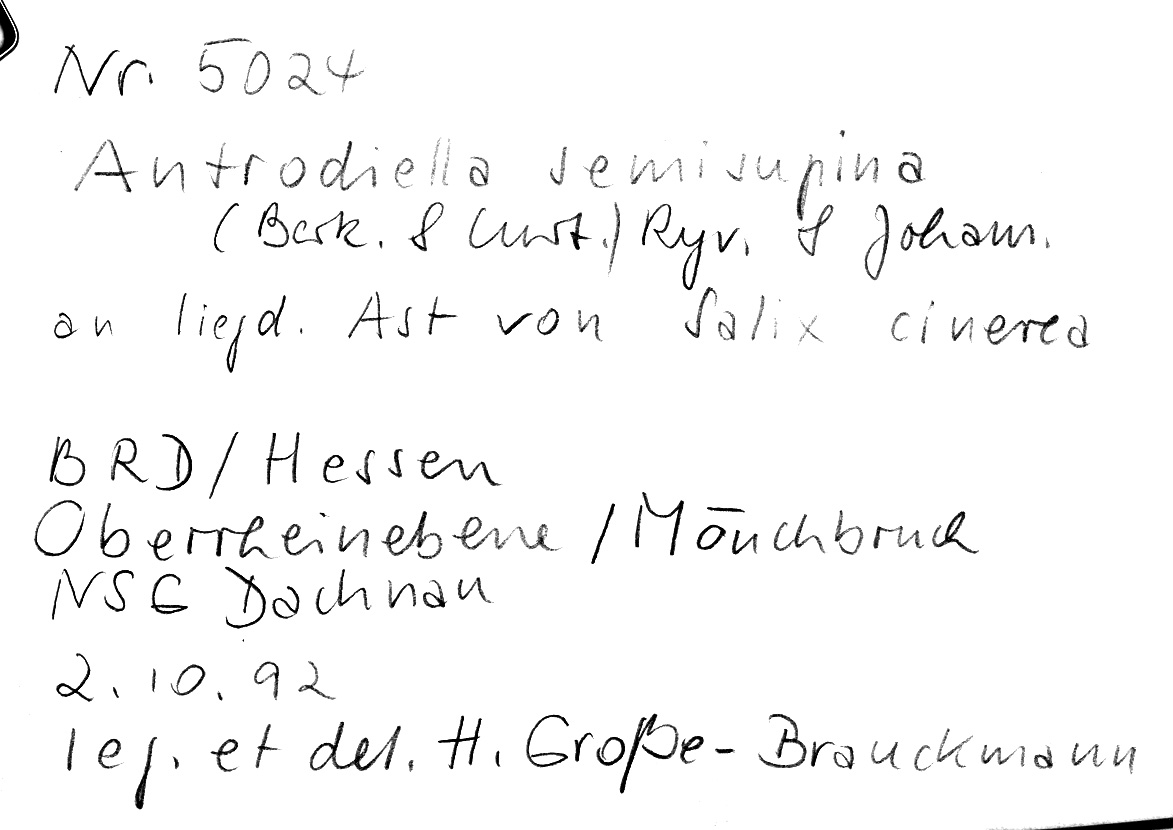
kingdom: Fungi
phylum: Basidiomycota
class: Agaricomycetes
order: Polyporales
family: Steccherinaceae
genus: Antrodiella
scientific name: Antrodiella semisupina
